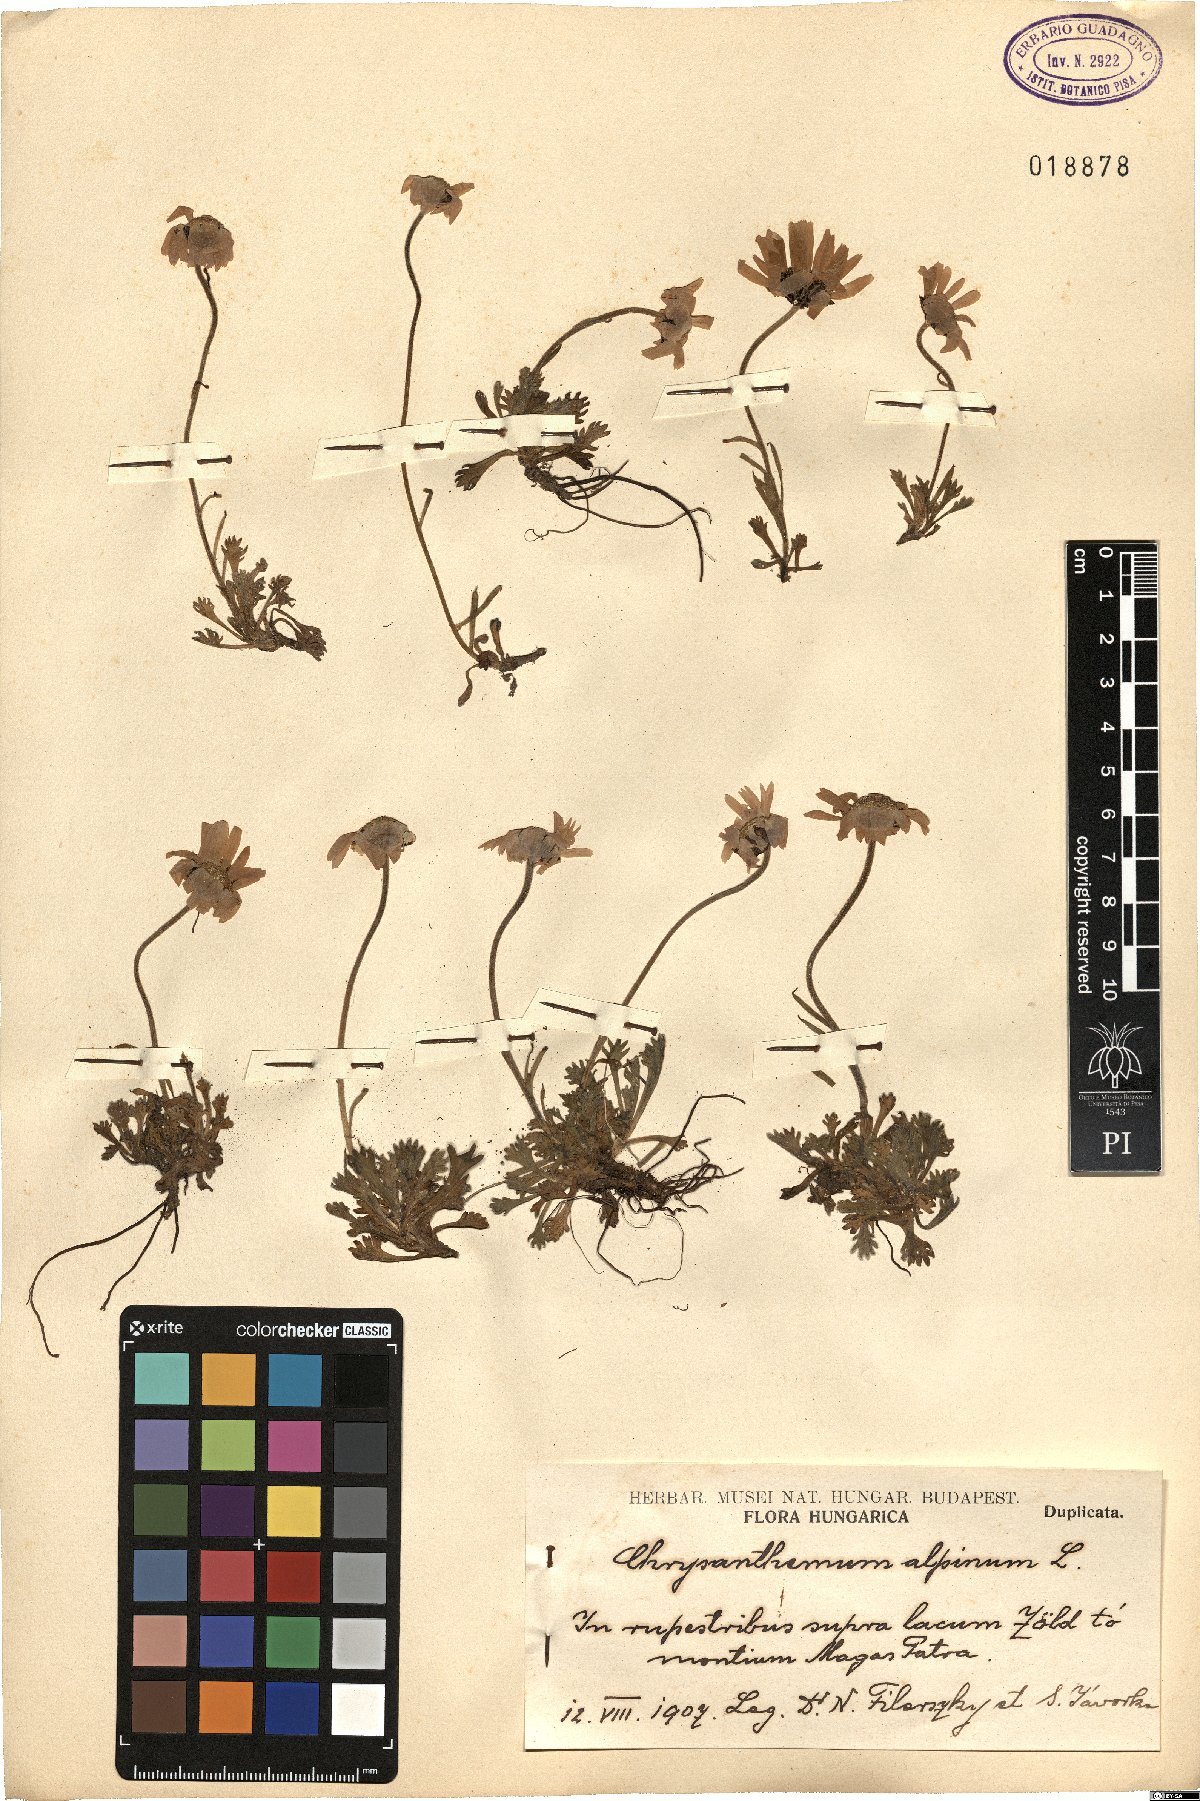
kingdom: Plantae
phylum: Tracheophyta
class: Magnoliopsida
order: Asterales
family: Asteraceae
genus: Leucanthemopsis
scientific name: Leucanthemopsis alpina
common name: Alpine moon daisy
